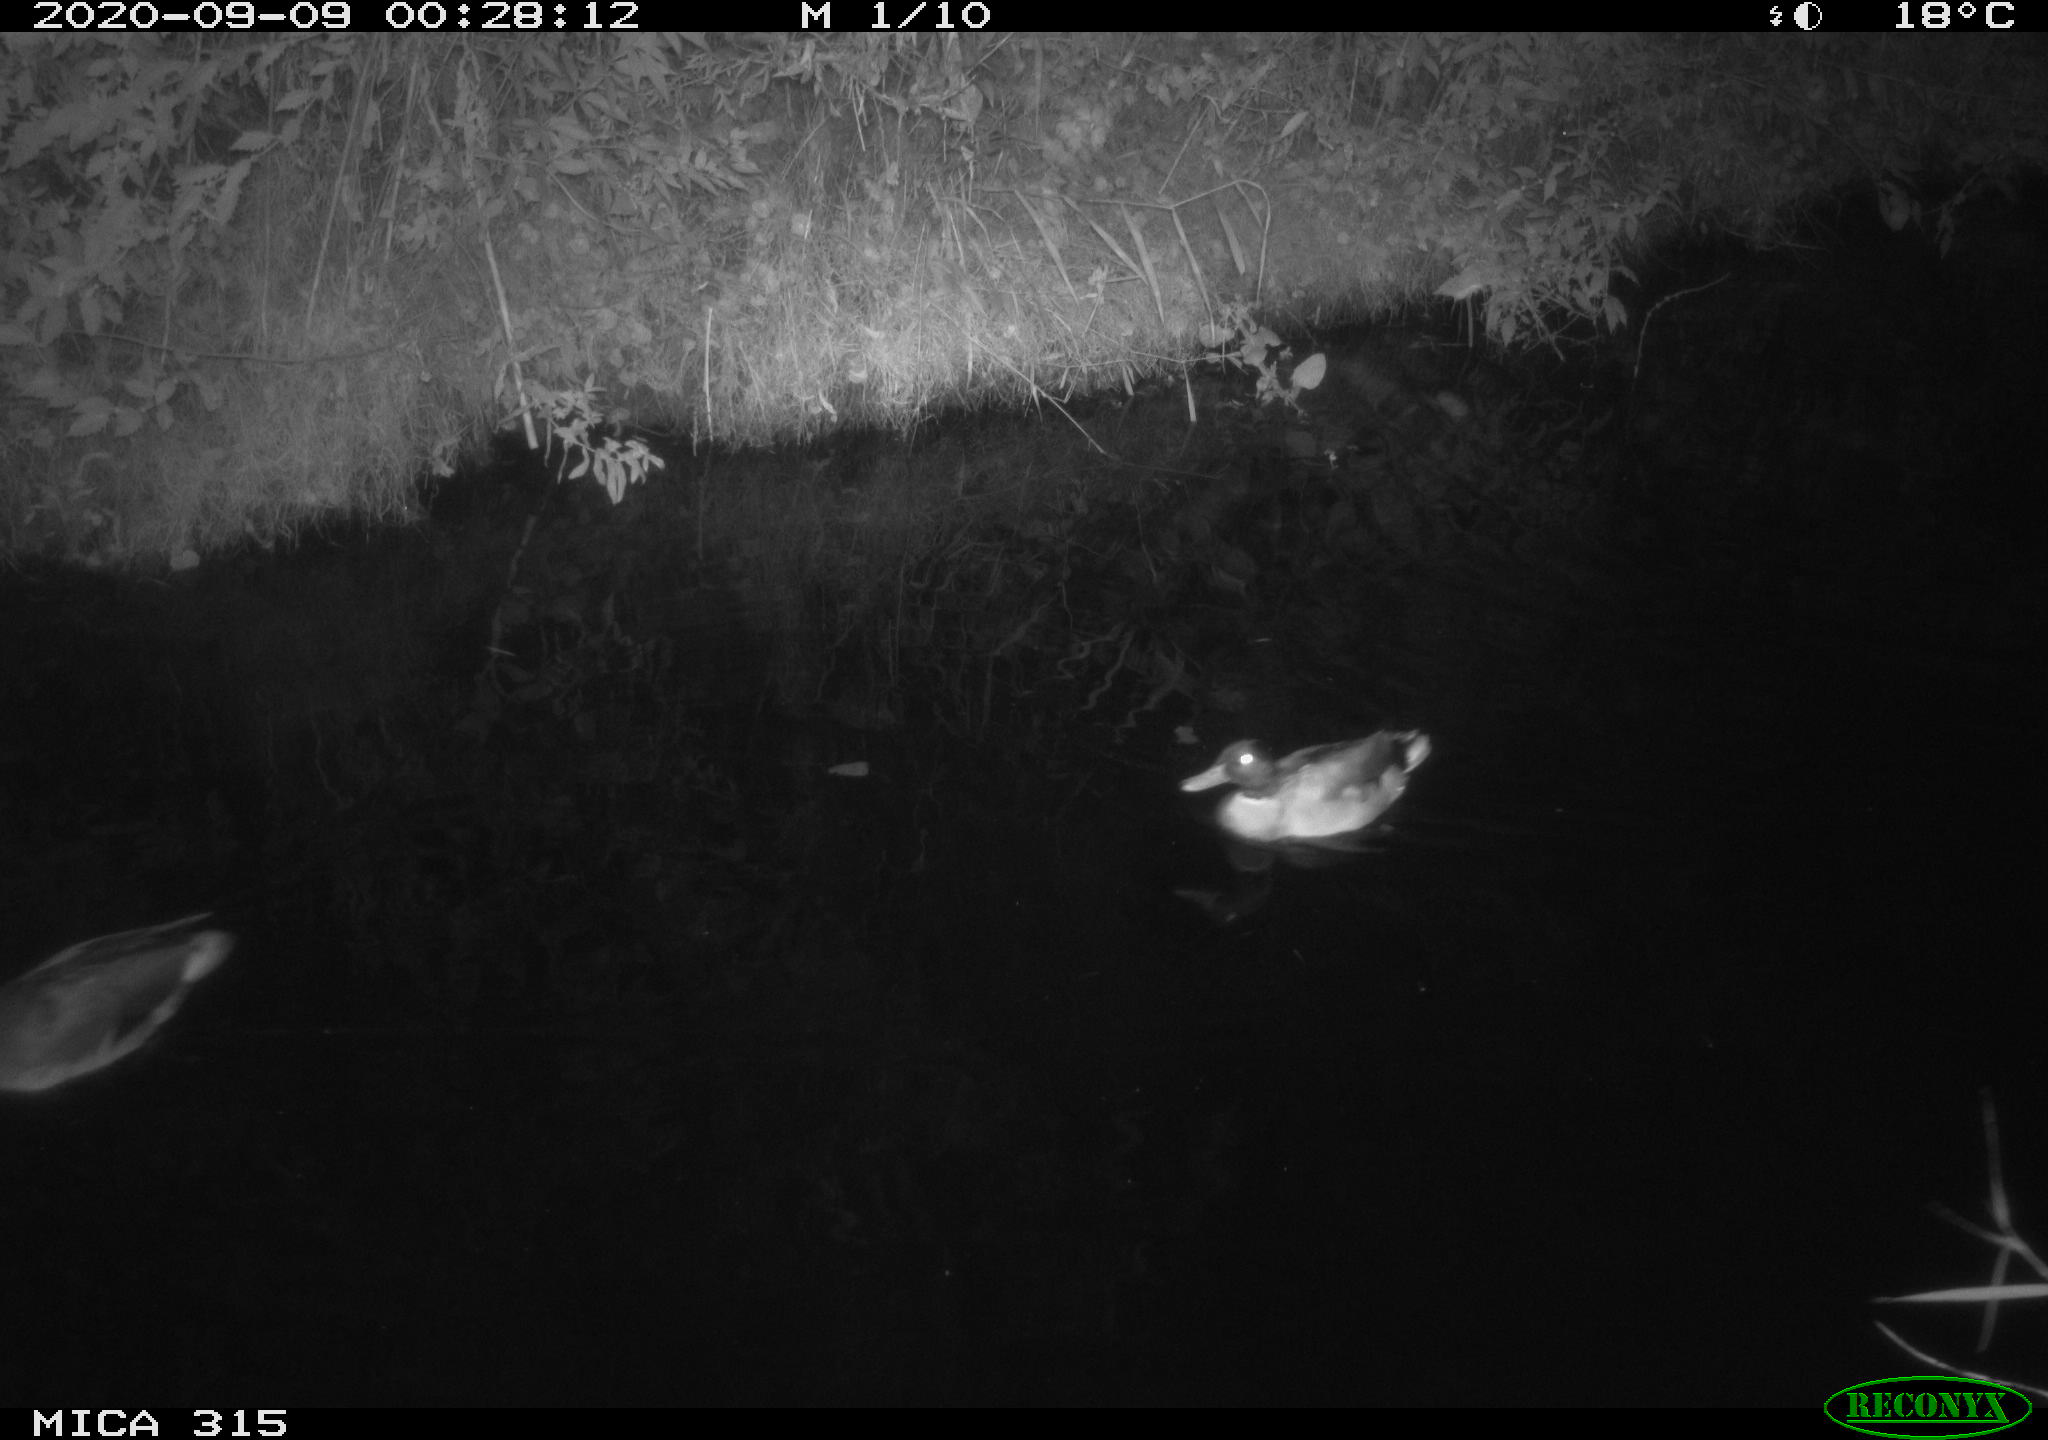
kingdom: Animalia
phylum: Chordata
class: Aves
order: Anseriformes
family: Anatidae
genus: Anas
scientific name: Anas platyrhynchos
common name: Mallard
